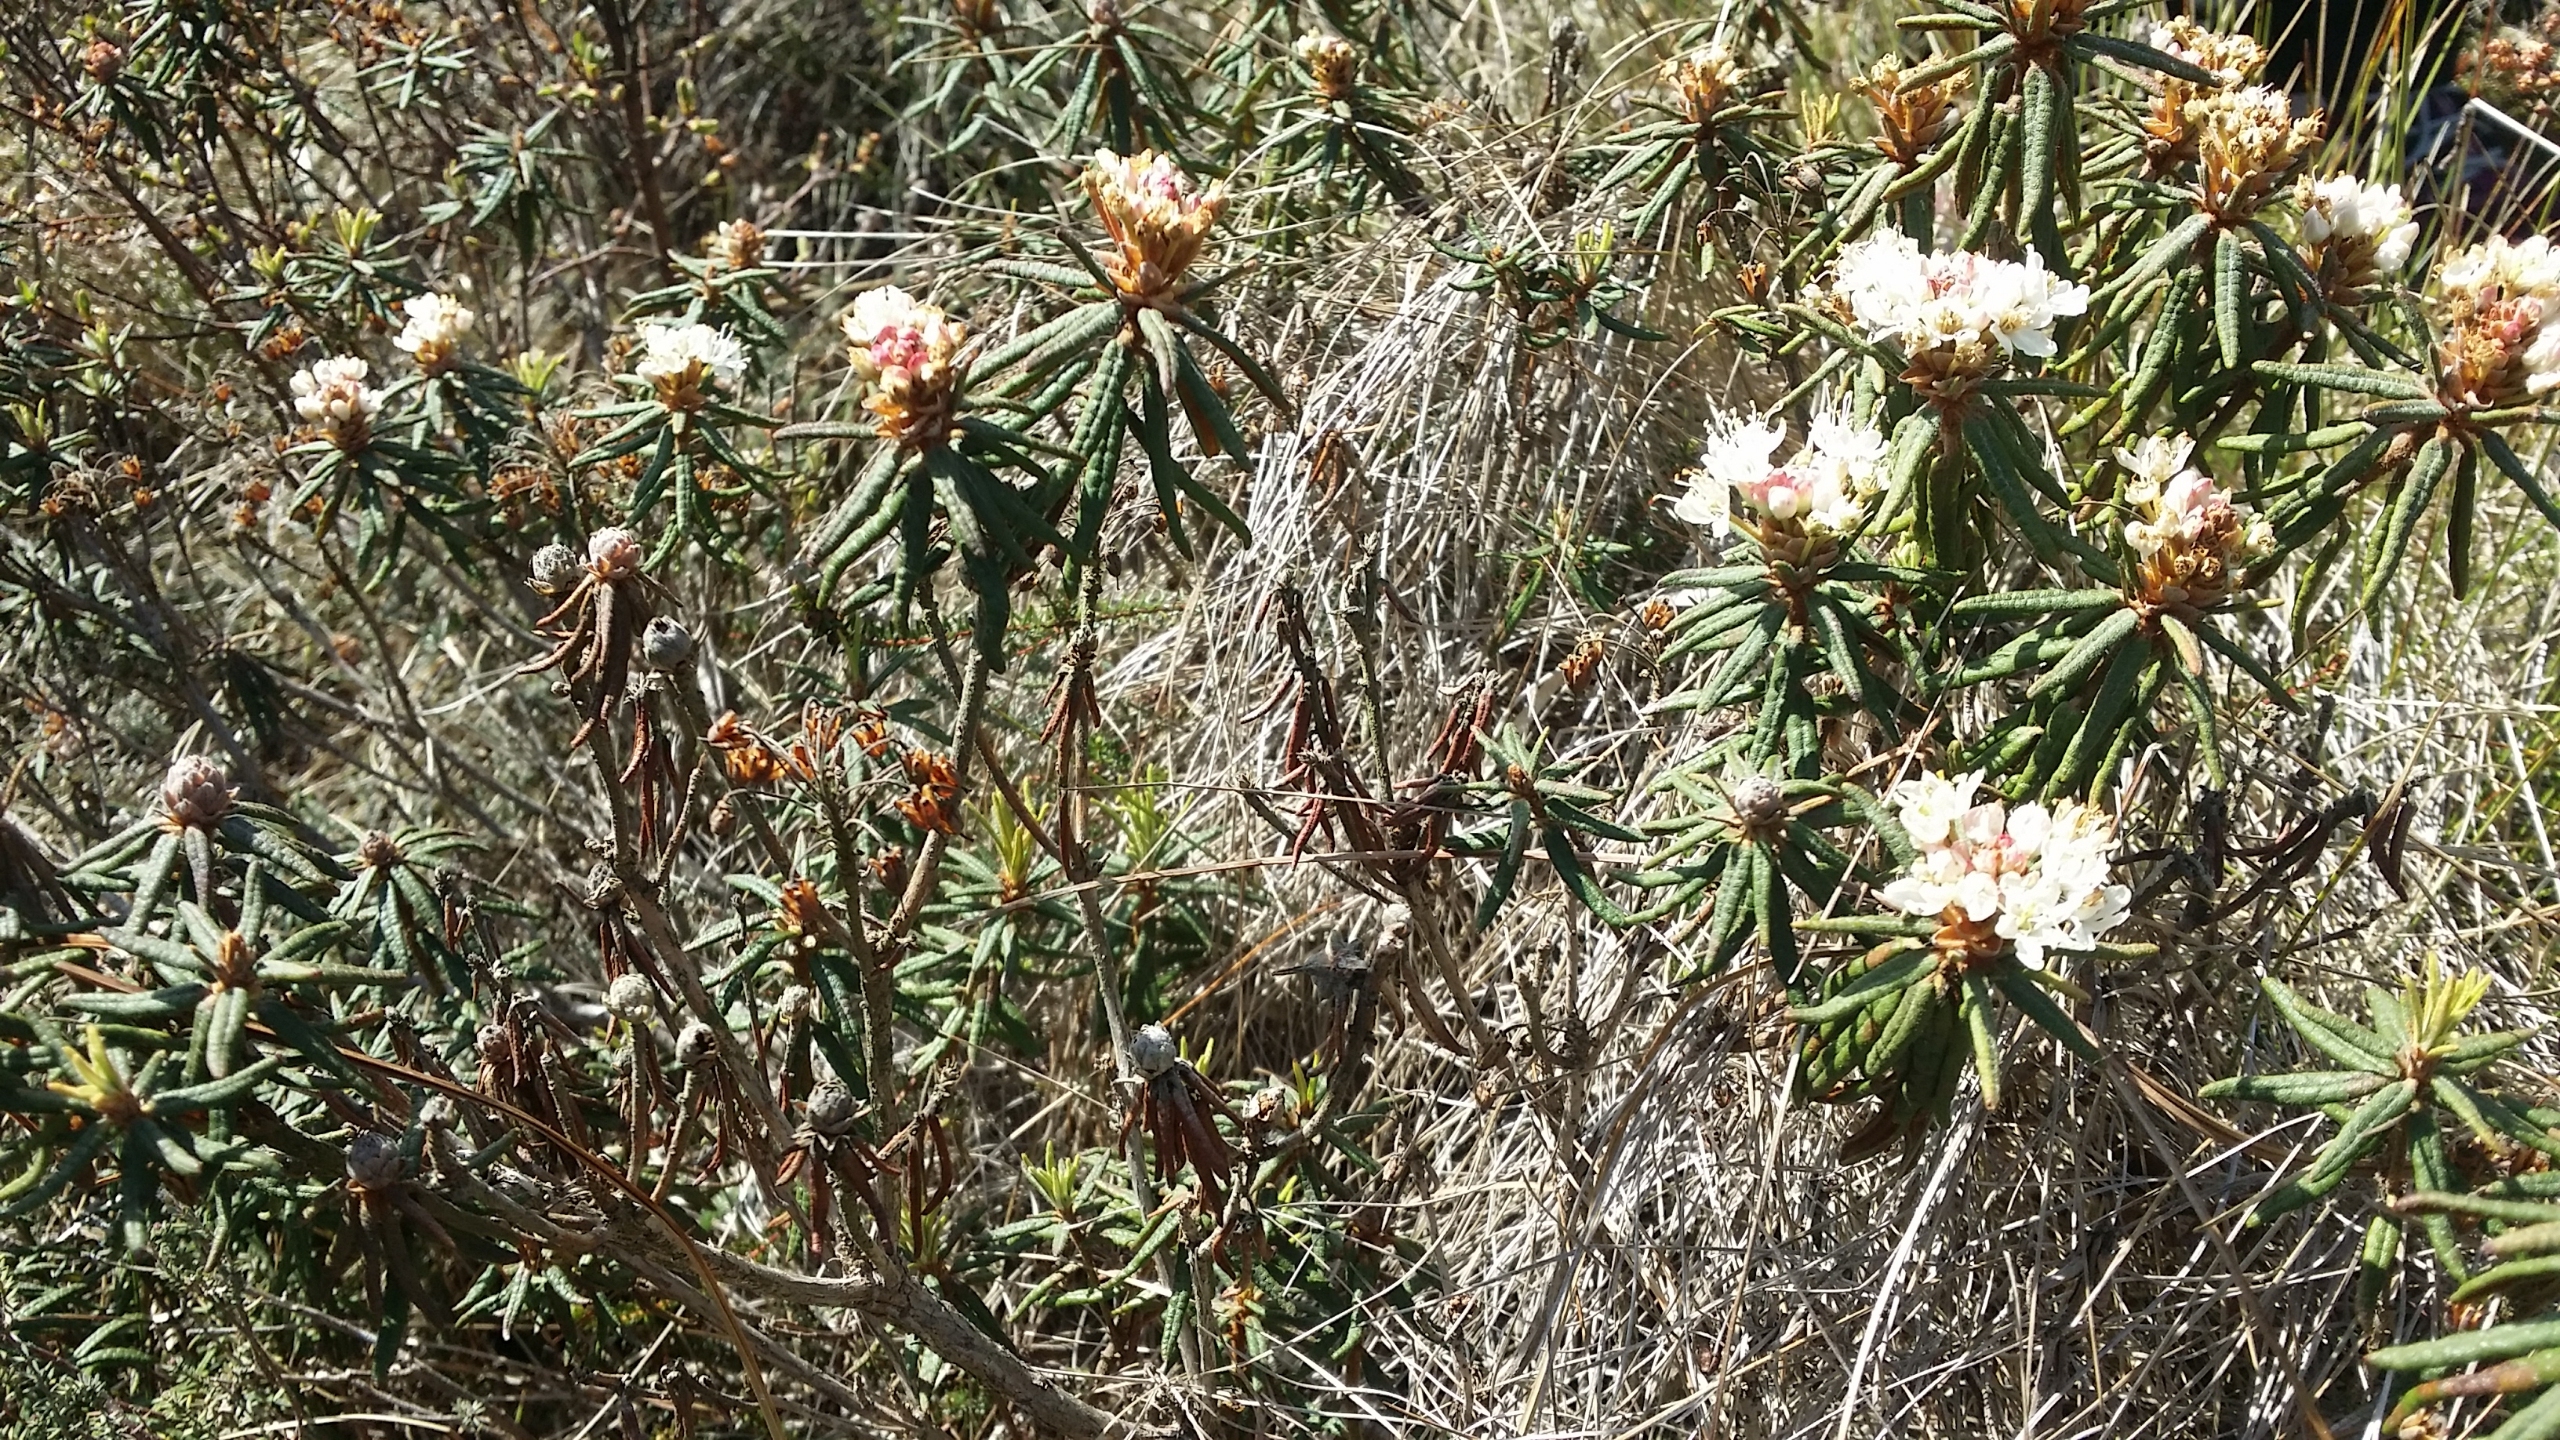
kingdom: Plantae
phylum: Tracheophyta
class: Magnoliopsida
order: Ericales
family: Ericaceae
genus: Rhododendron
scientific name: Rhododendron tomentosum
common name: Mosepost
